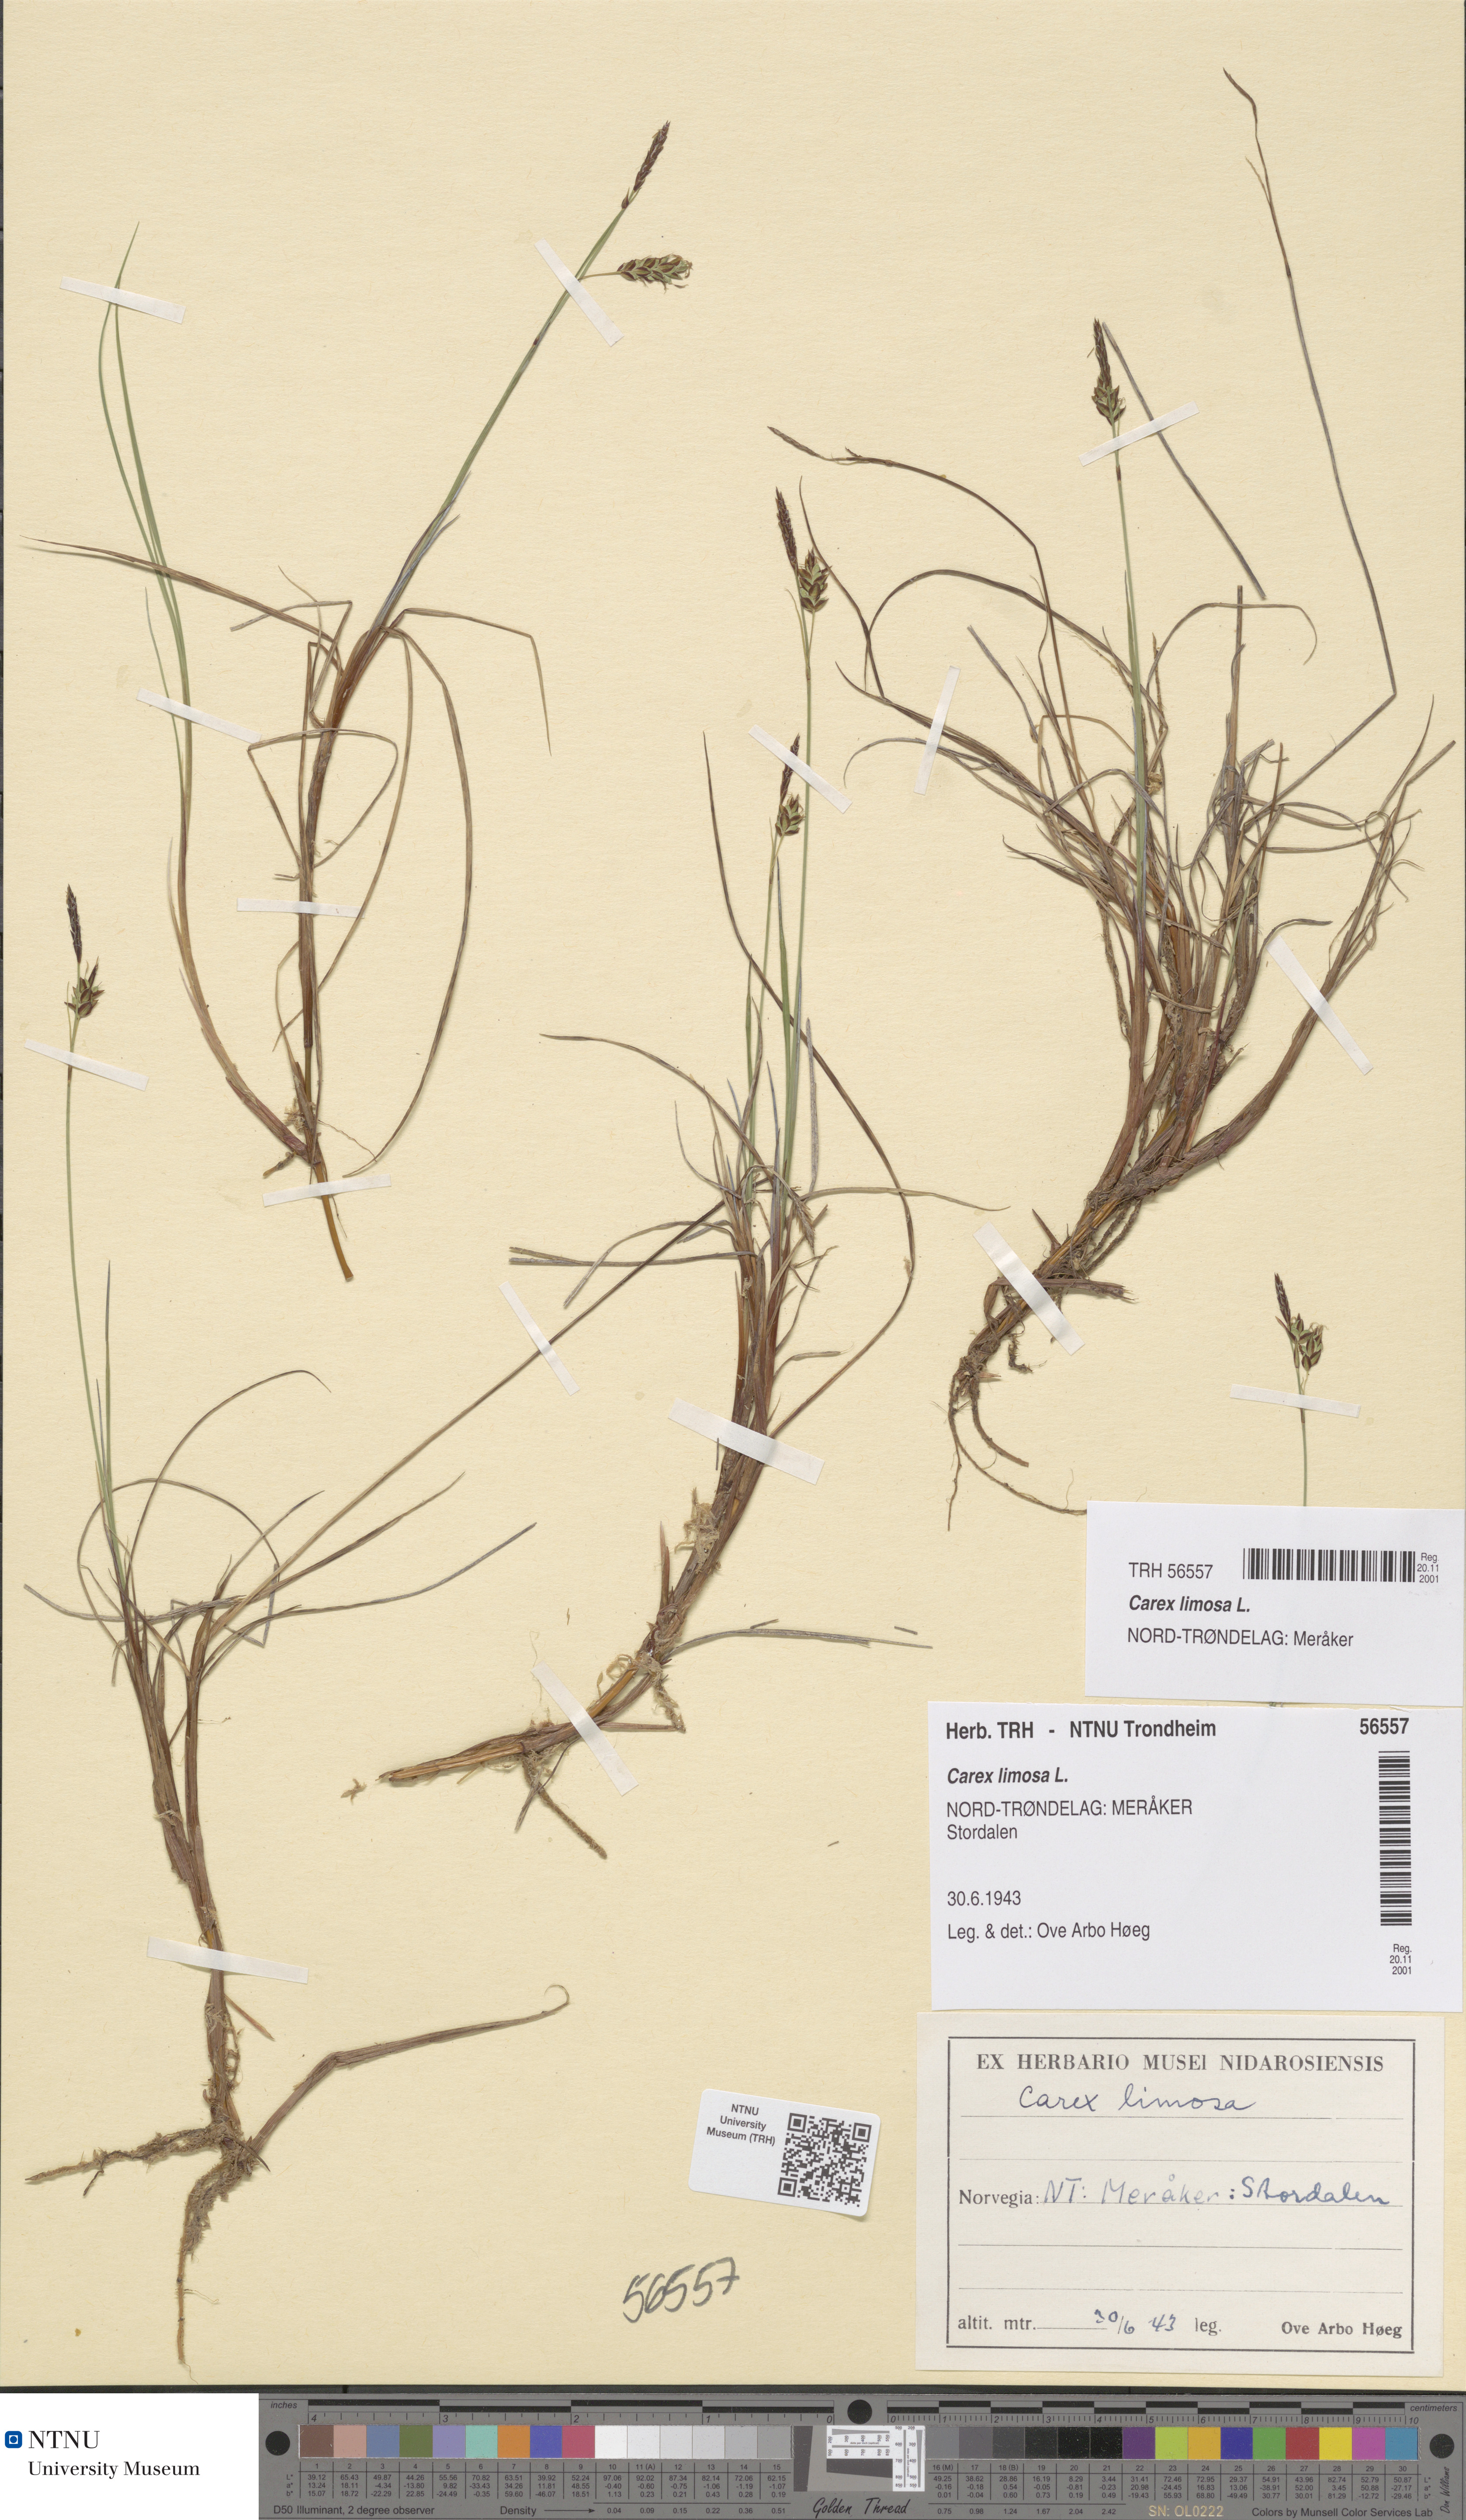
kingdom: Plantae
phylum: Tracheophyta
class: Liliopsida
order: Poales
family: Cyperaceae
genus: Carex
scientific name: Carex limosa
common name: Bog sedge
